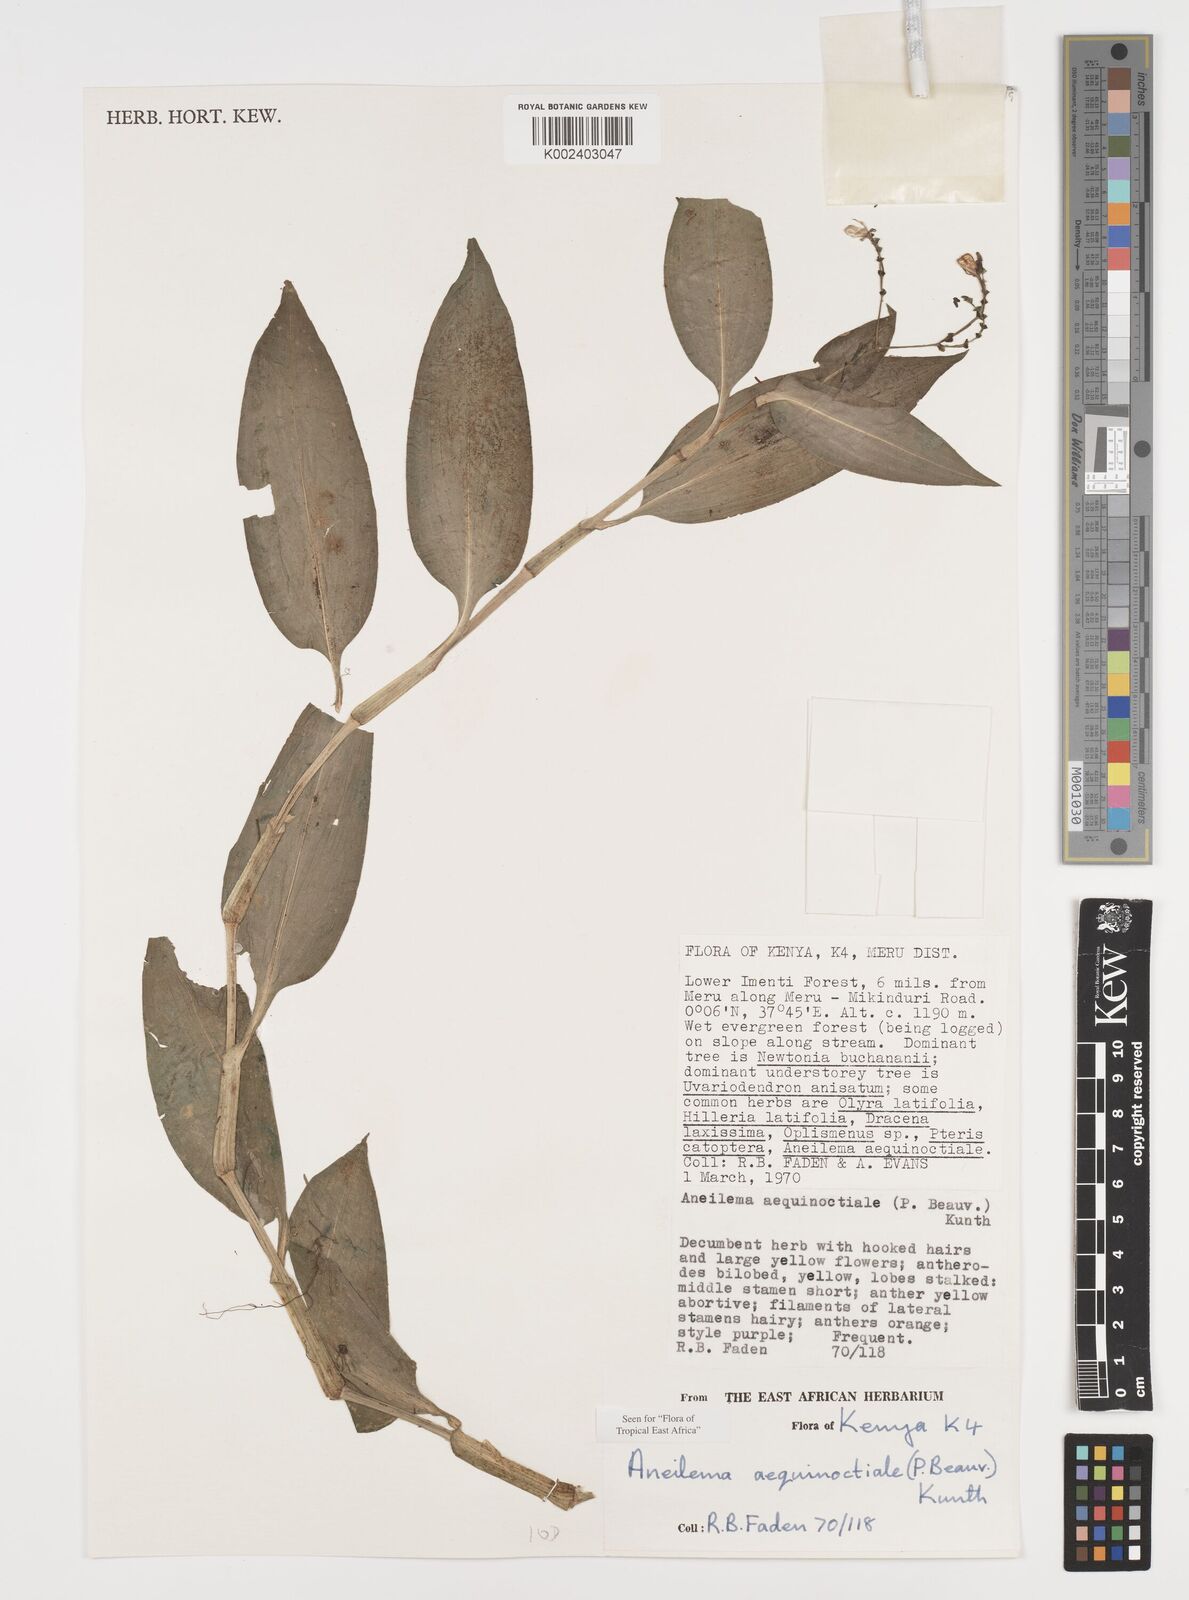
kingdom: Plantae
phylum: Tracheophyta
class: Liliopsida
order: Commelinales
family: Commelinaceae
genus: Aneilema
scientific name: Aneilema aequinoctiale
